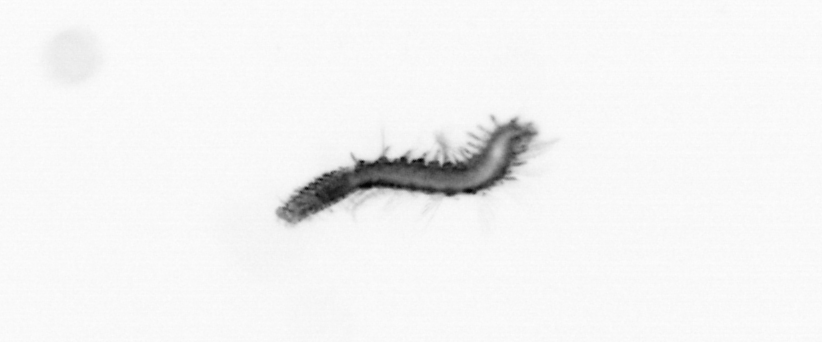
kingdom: Animalia
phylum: Annelida
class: Polychaeta
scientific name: Polychaeta
